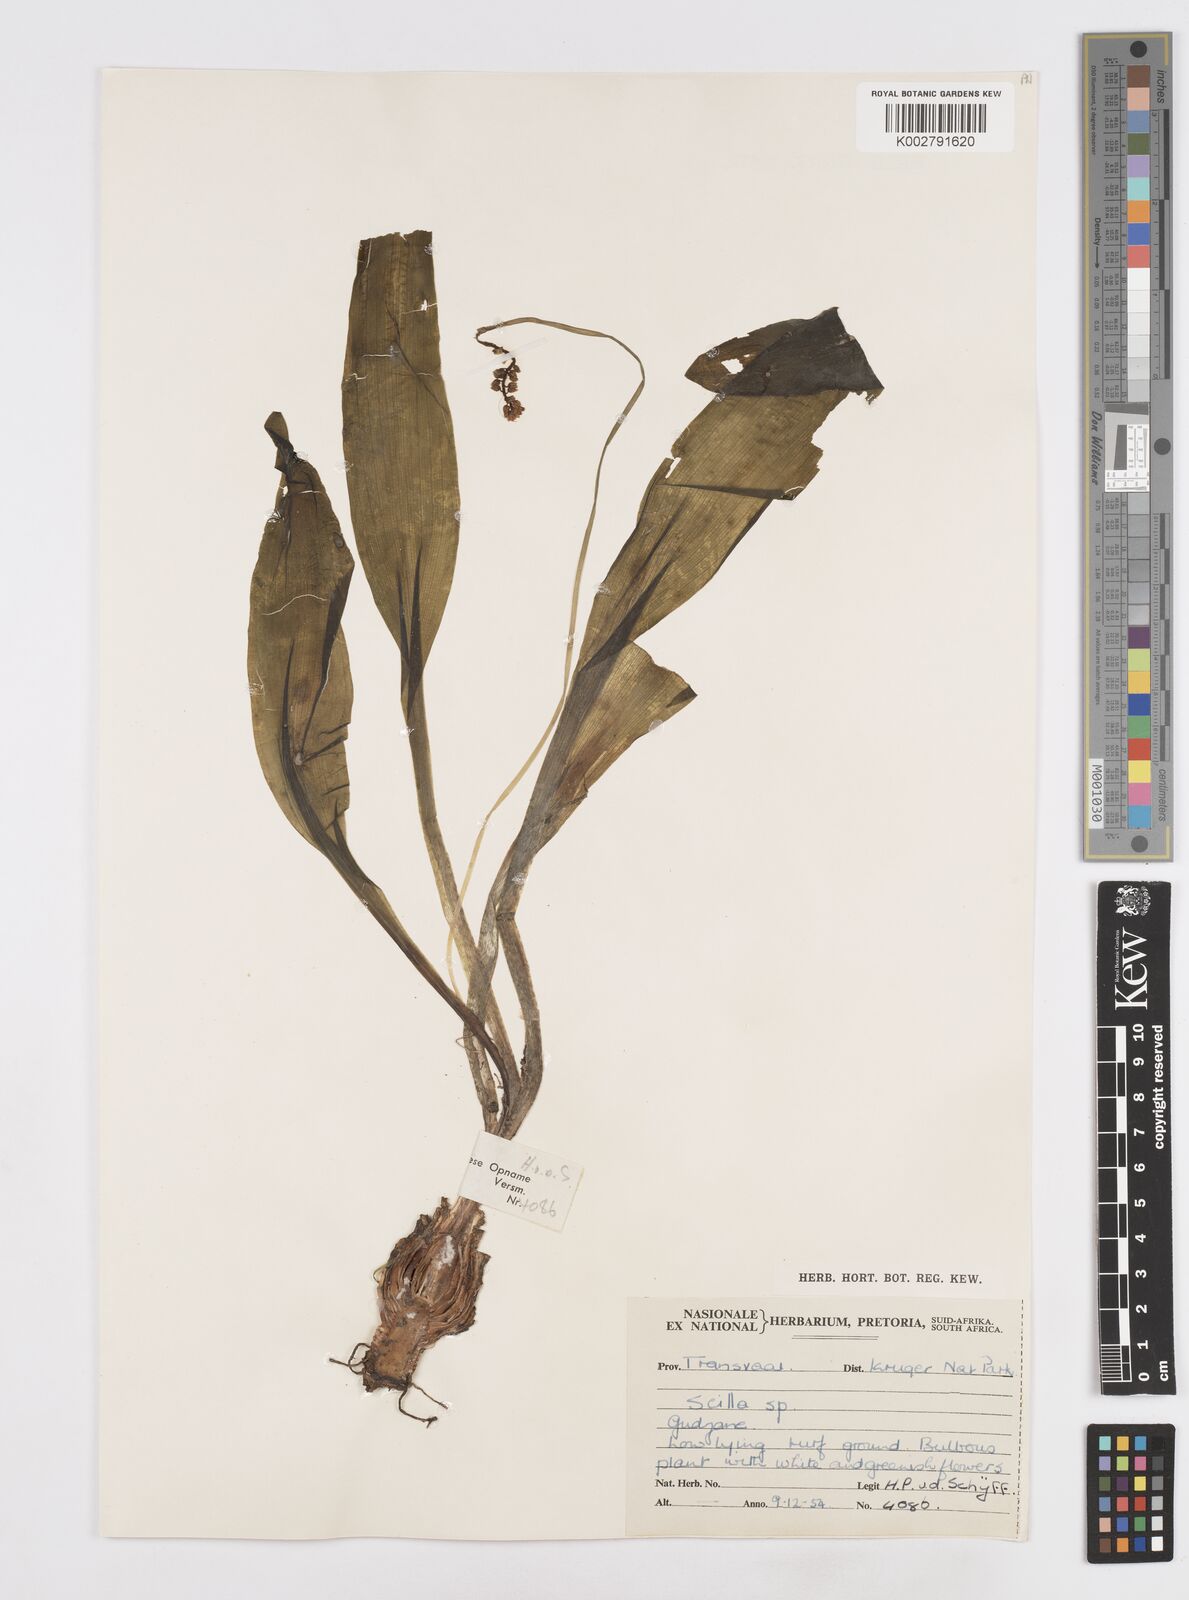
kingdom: Plantae
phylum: Tracheophyta
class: Liliopsida
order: Asparagales
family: Asparagaceae
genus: Scilla
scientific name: Scilla
